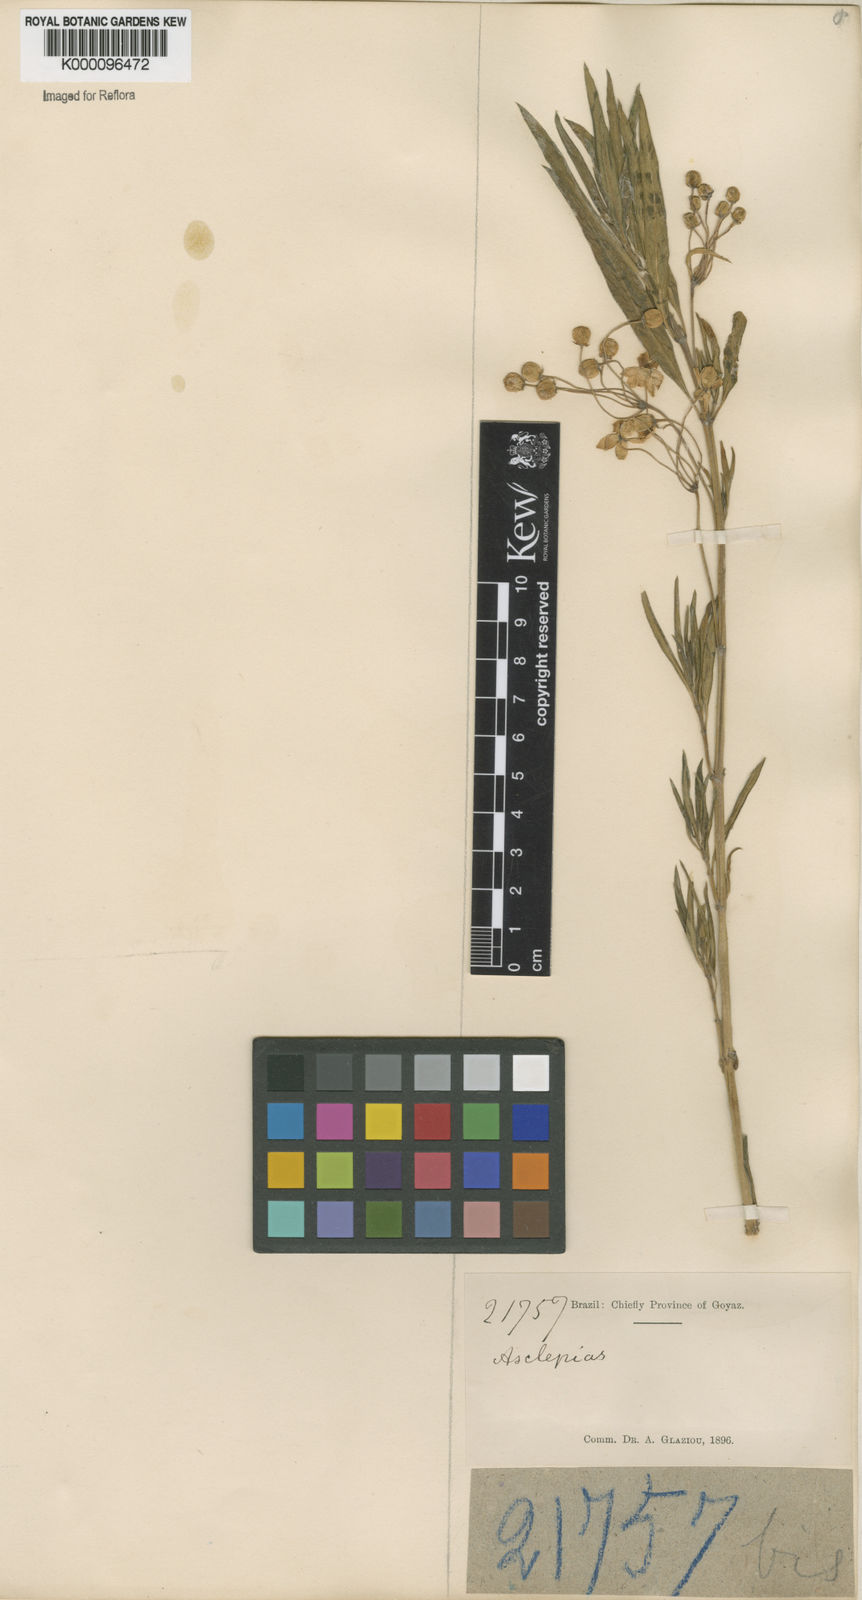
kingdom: Plantae
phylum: Tracheophyta
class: Magnoliopsida
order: Gentianales
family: Apocynaceae
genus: Gomphocarpus
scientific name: Gomphocarpus physocarpus
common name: Balloon cotton bush
